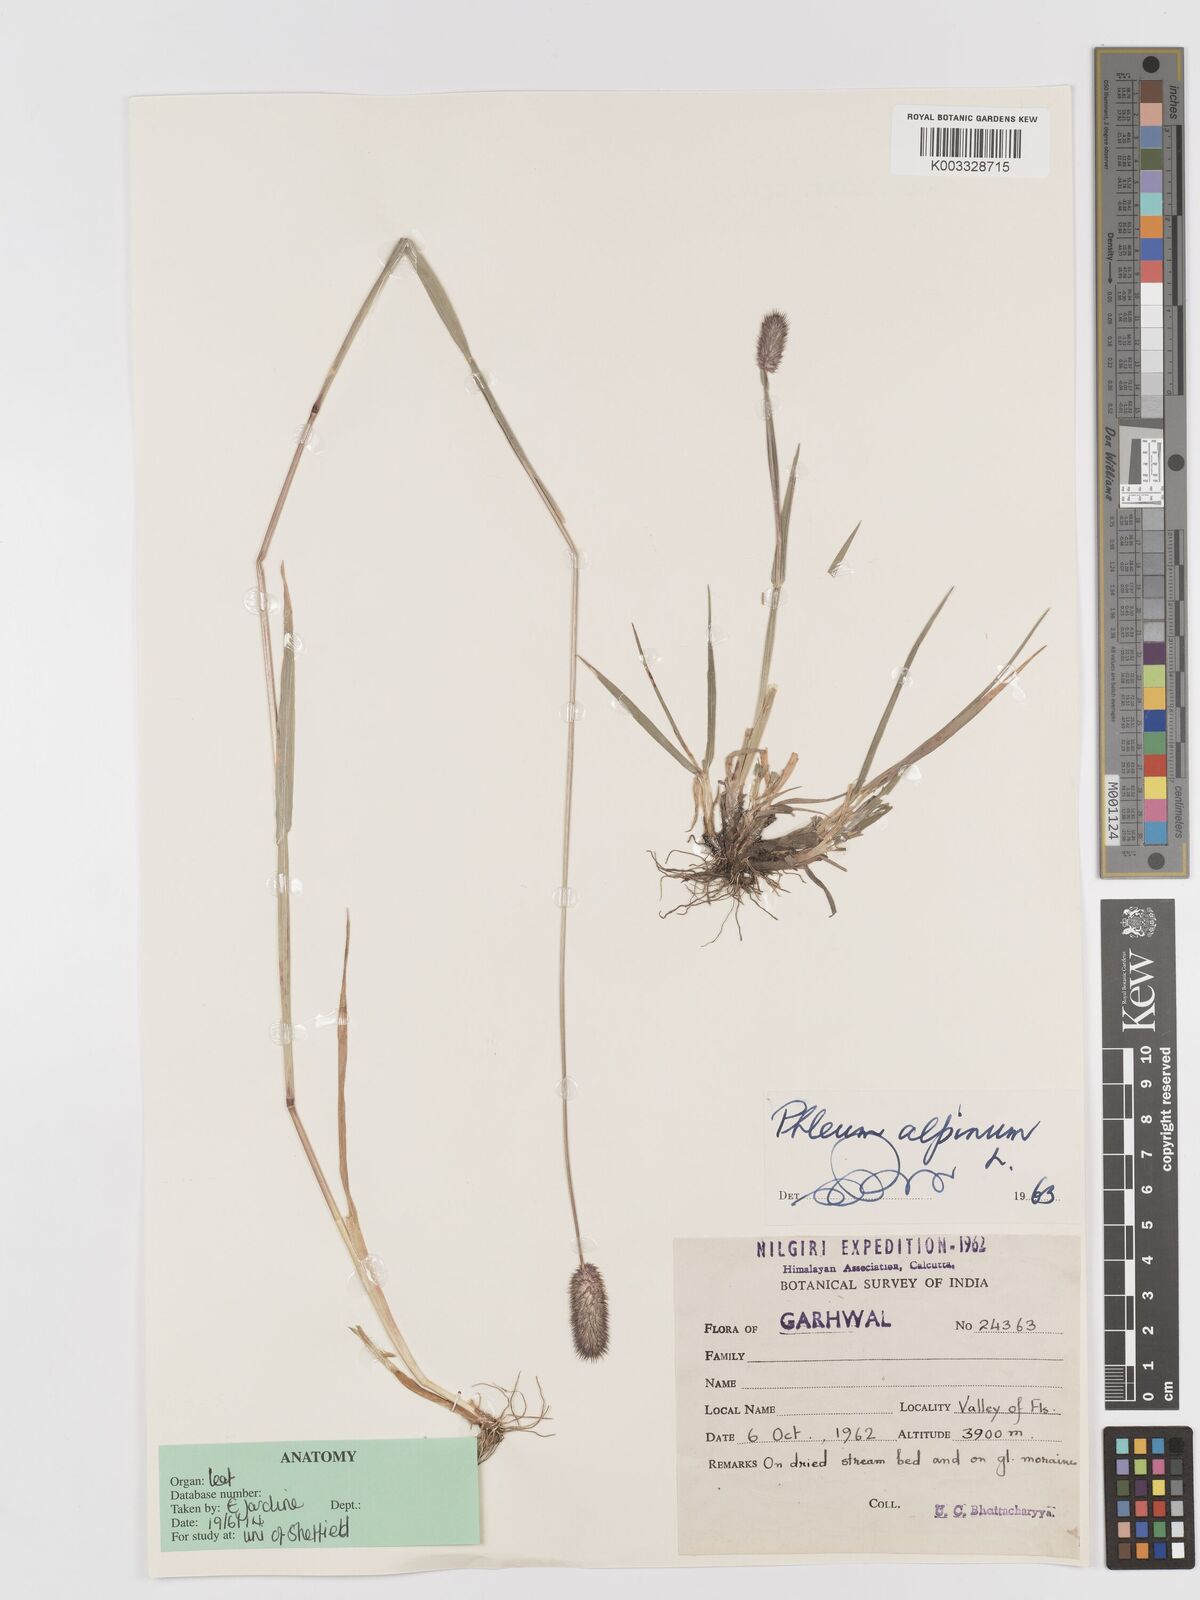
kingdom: Plantae
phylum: Tracheophyta
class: Liliopsida
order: Poales
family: Poaceae
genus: Phleum
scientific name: Phleum alpinum
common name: Alpine cat's-tail
